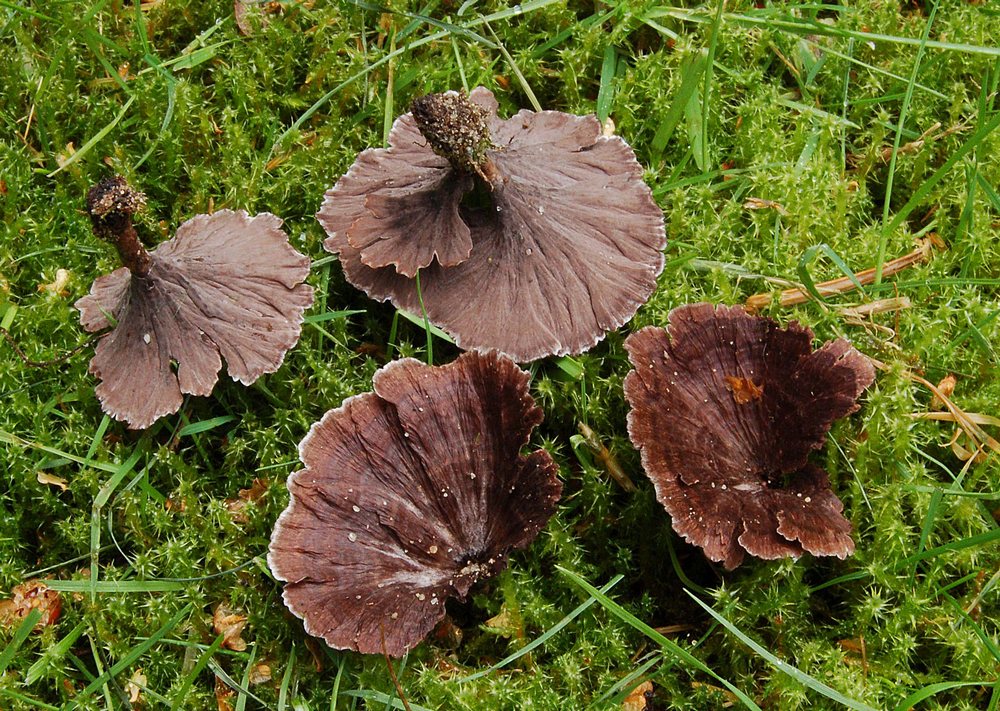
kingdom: Fungi
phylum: Basidiomycota
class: Agaricomycetes
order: Thelephorales
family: Thelephoraceae
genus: Thelephora
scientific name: Thelephora caryophyllea
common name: tragt-frynsesvamp
